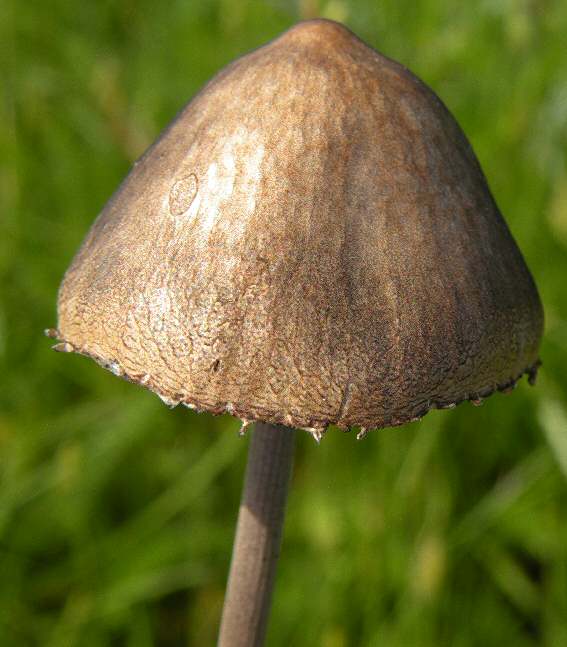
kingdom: Fungi
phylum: Basidiomycota
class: Agaricomycetes
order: Agaricales
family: Bolbitiaceae
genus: Panaeolus
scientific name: Panaeolus papilionaceus
